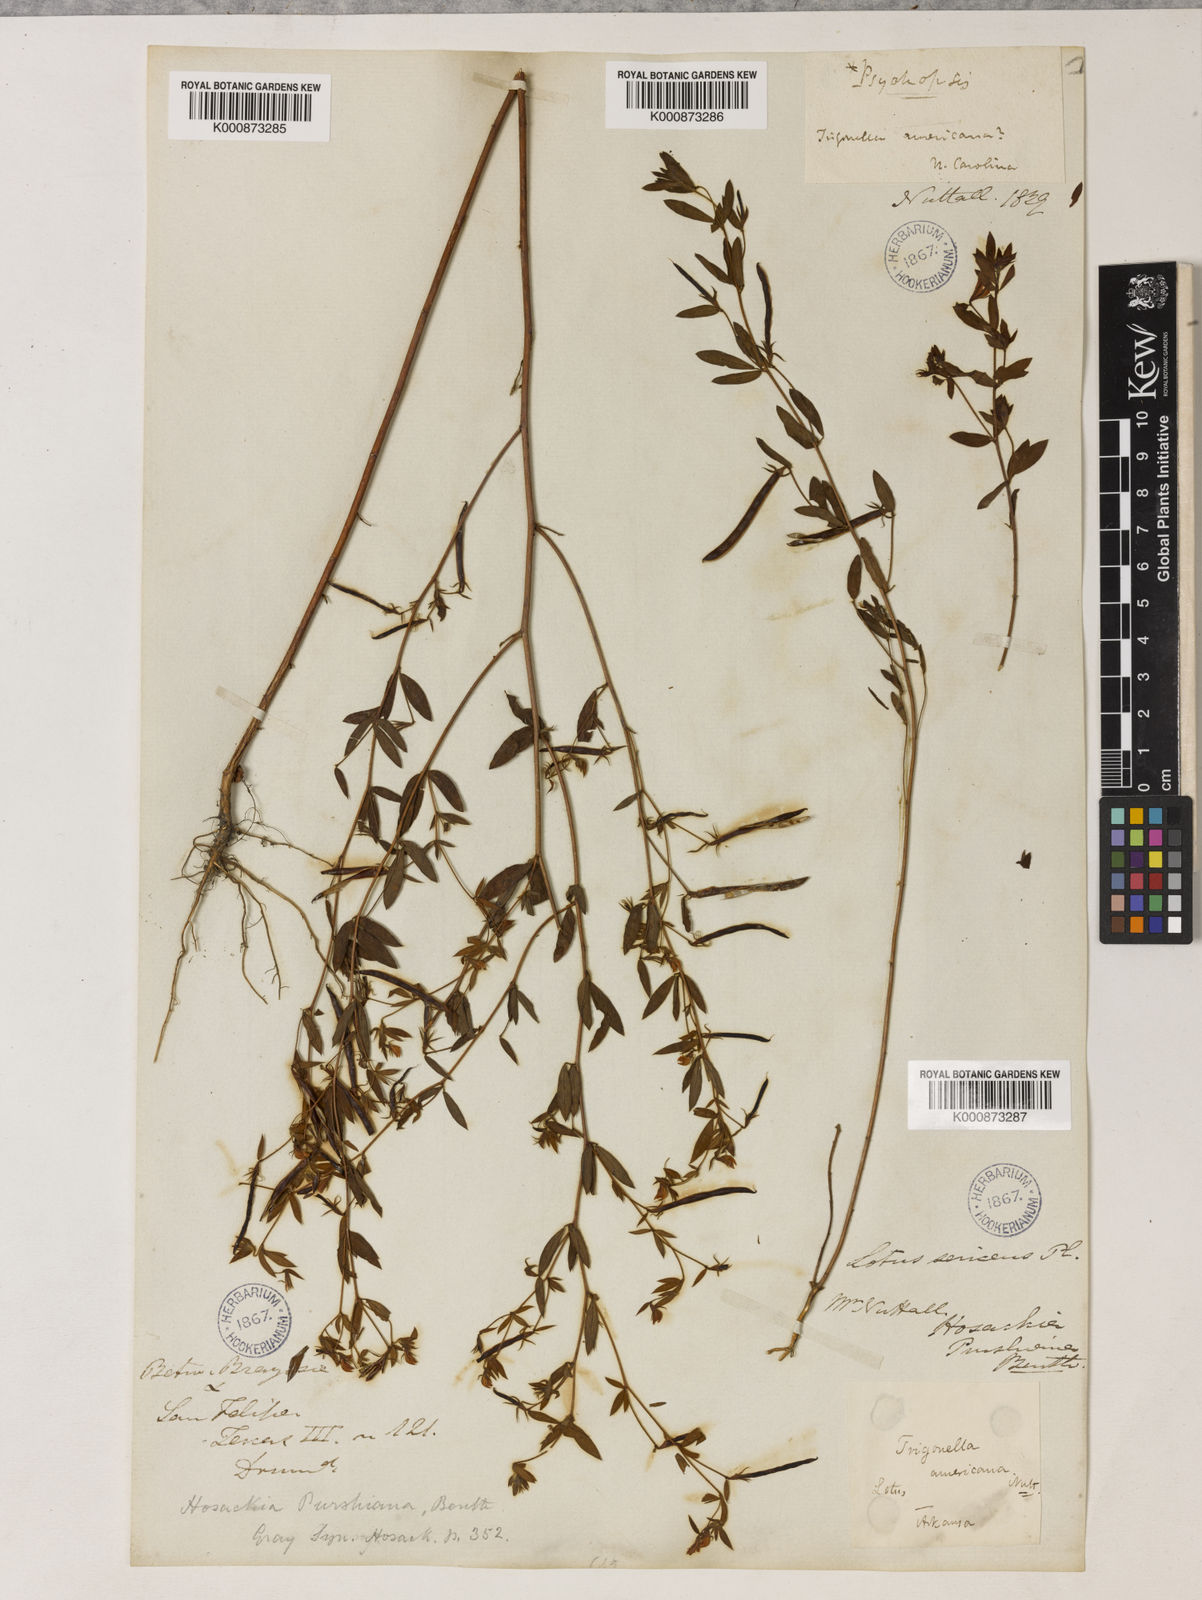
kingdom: Plantae
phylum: Tracheophyta
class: Magnoliopsida
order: Fabales
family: Fabaceae
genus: Collaea
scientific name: Collaea speciosa
